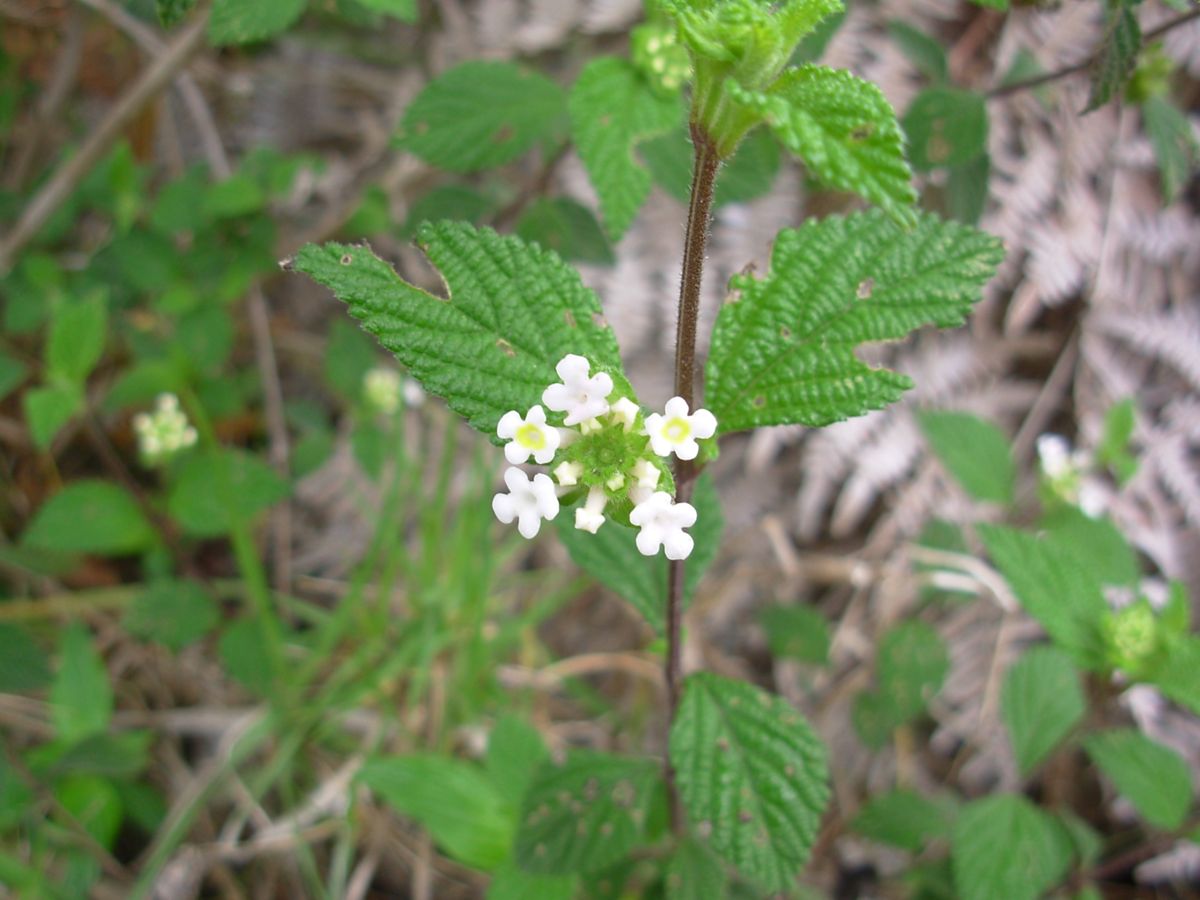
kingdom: Plantae
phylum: Tracheophyta
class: Magnoliopsida
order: Lamiales
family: Verbenaceae
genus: Lantana
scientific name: Lantana velutina
